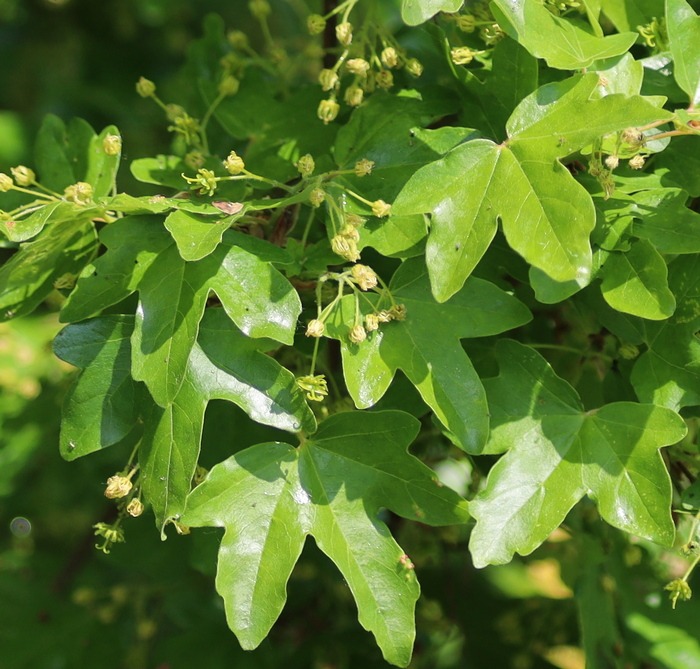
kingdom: Plantae
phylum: Tracheophyta
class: Magnoliopsida
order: Sapindales
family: Sapindaceae
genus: Acer
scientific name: Acer campestre
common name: Navr
